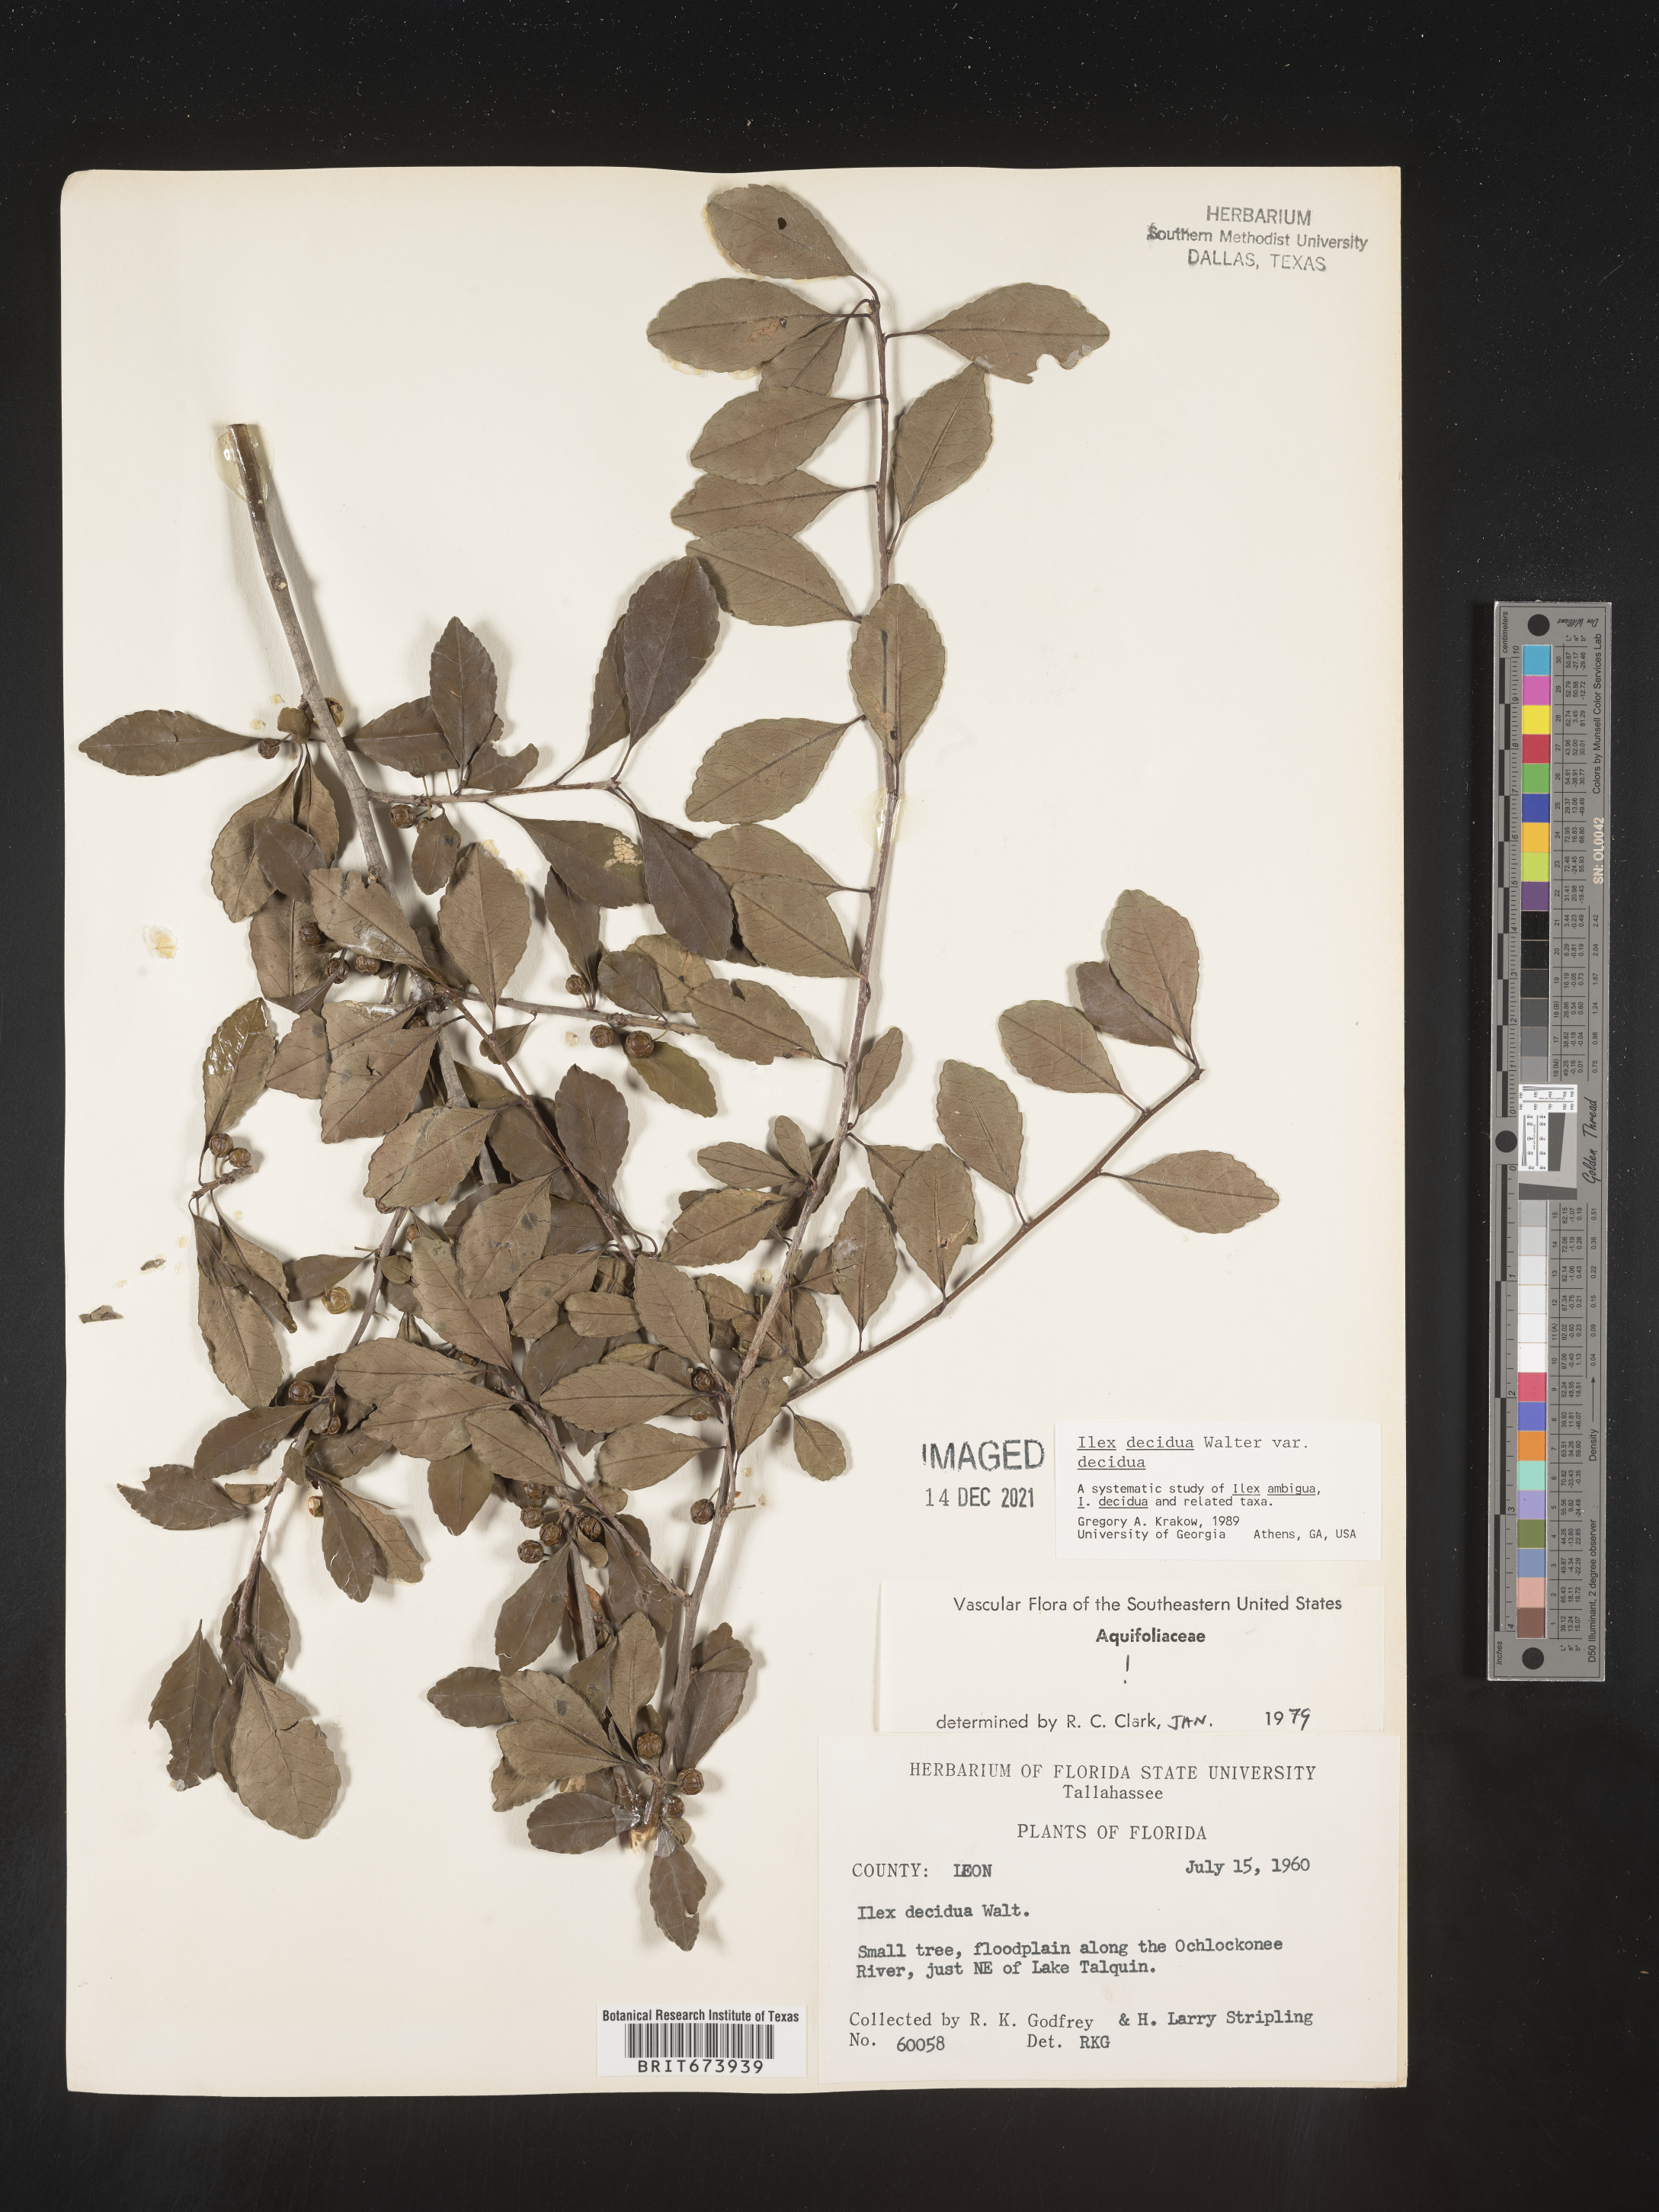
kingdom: Plantae
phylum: Tracheophyta
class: Magnoliopsida
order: Aquifoliales
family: Aquifoliaceae
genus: Ilex
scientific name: Ilex decidua
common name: Possum-haw
